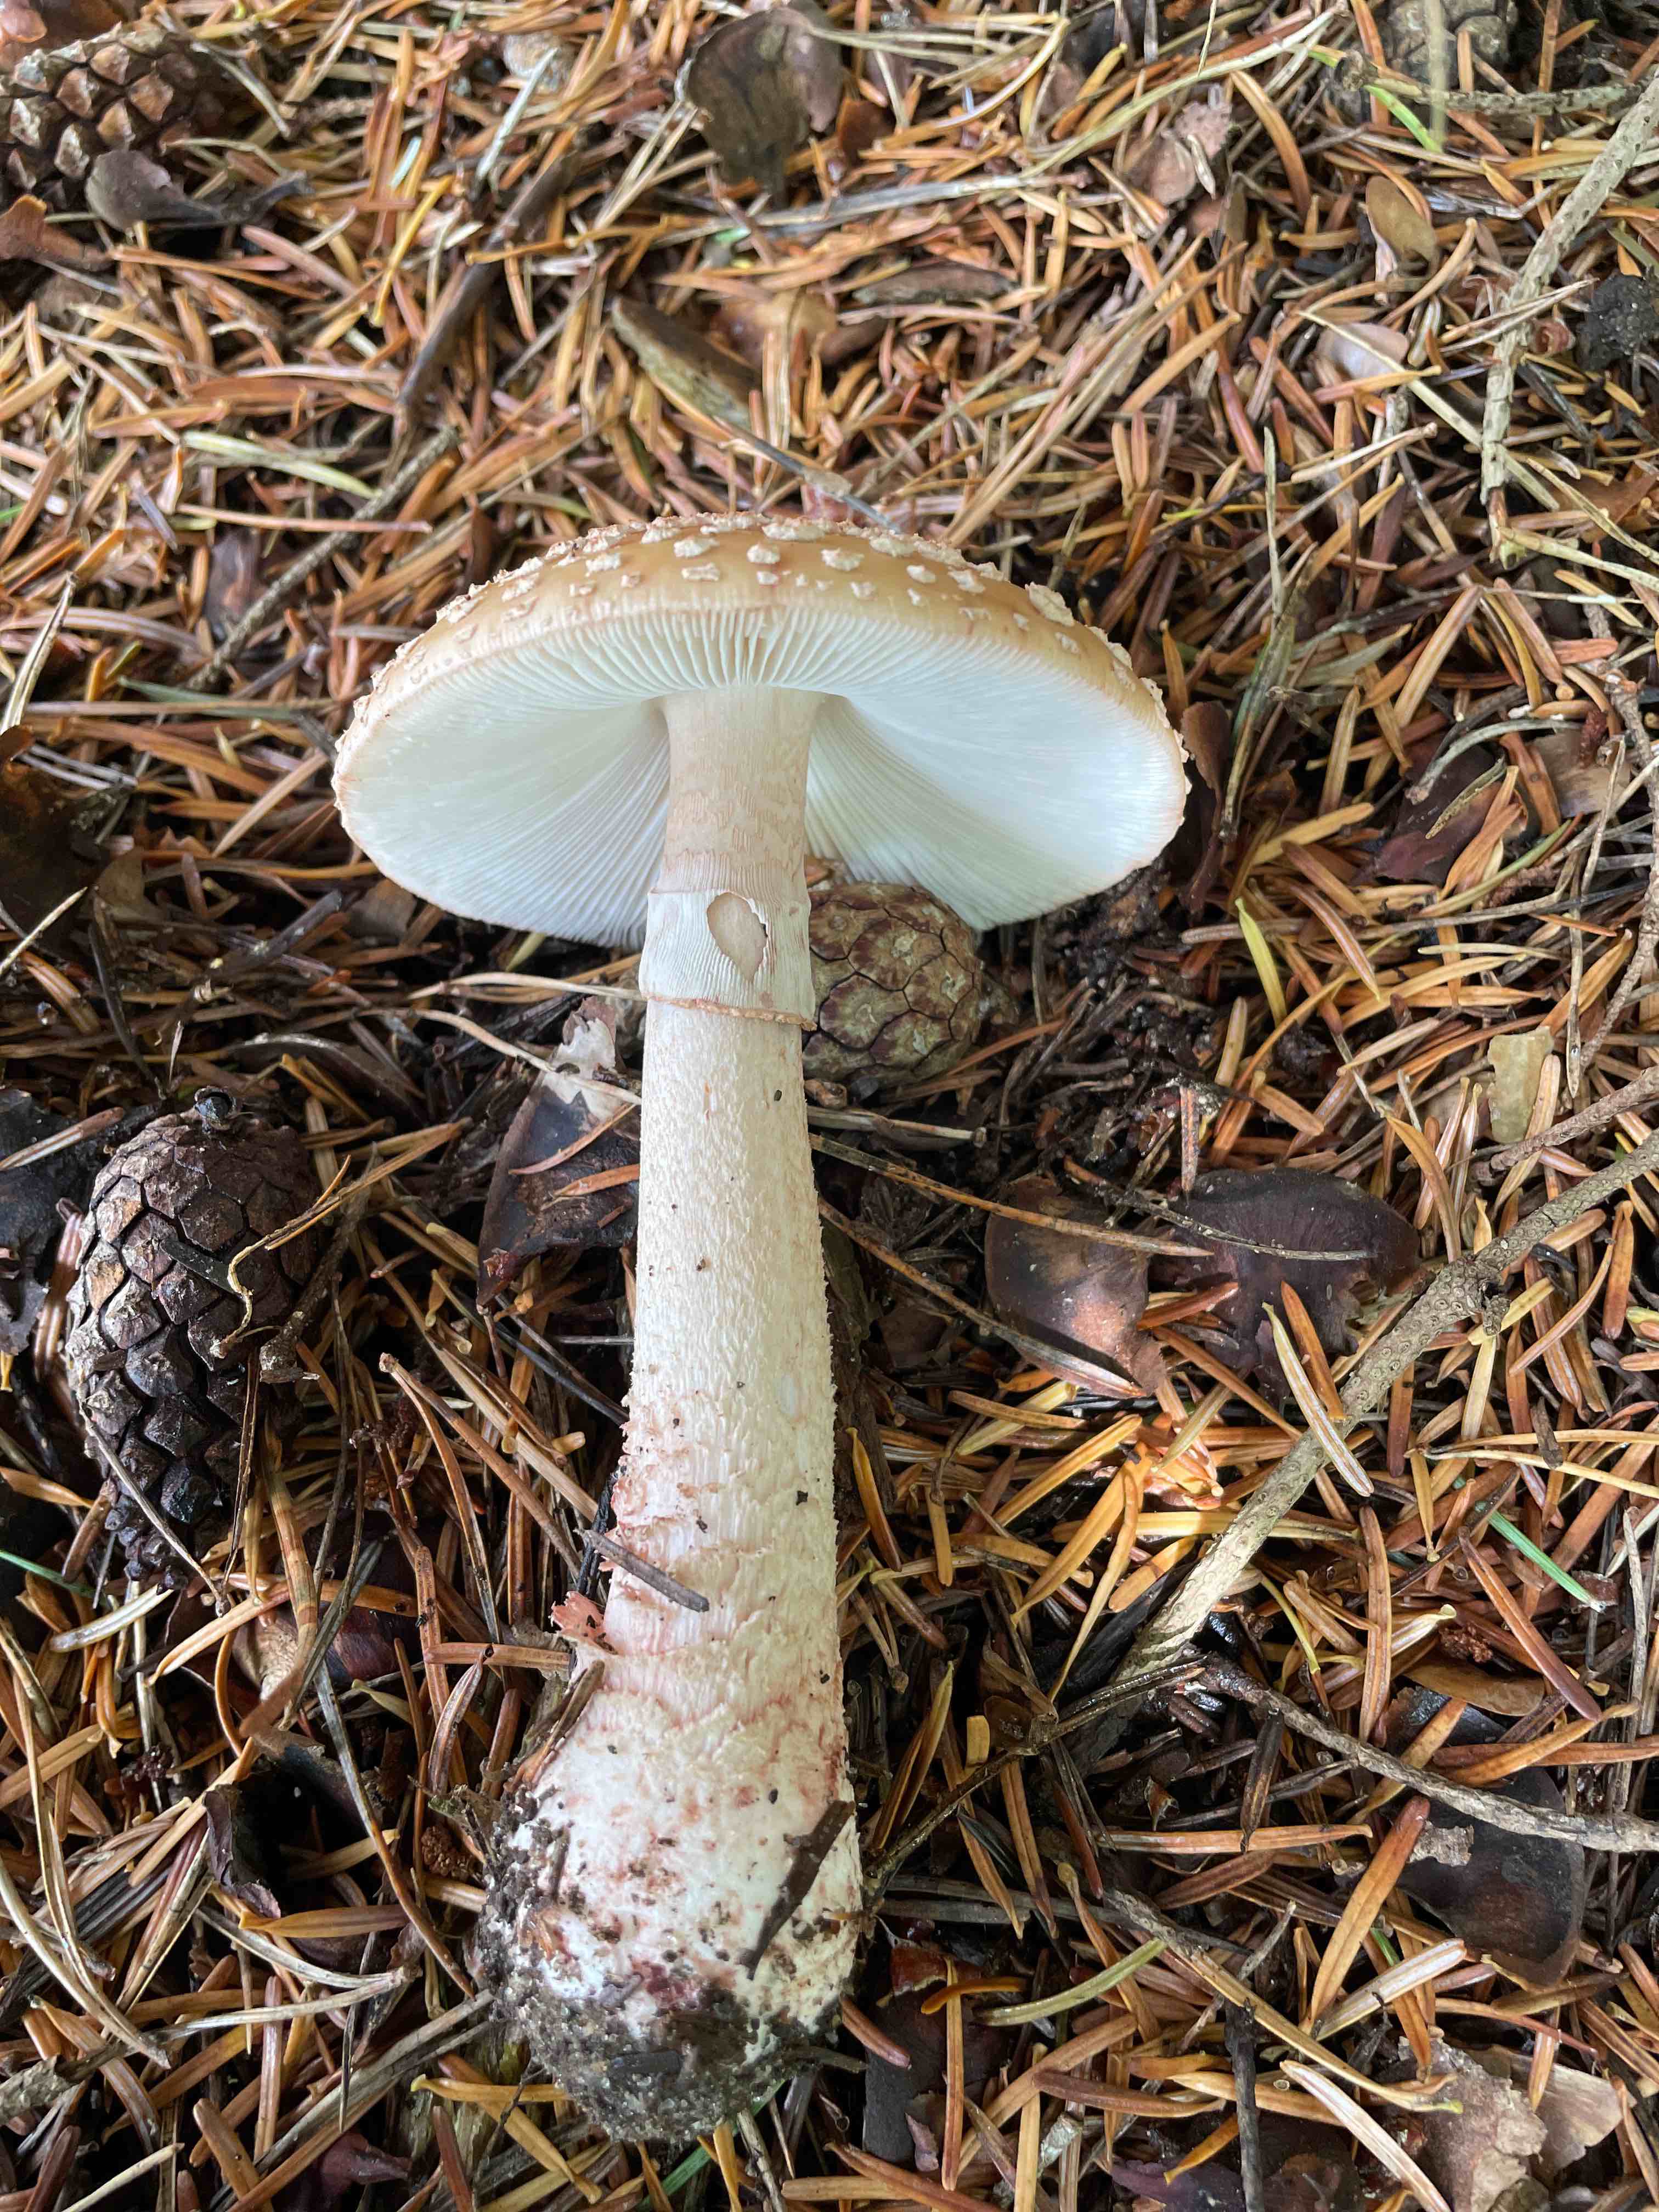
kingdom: Fungi
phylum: Basidiomycota
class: Agaricomycetes
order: Agaricales
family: Amanitaceae
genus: Amanita
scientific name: Amanita rubescens
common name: rødmende fluesvamp
